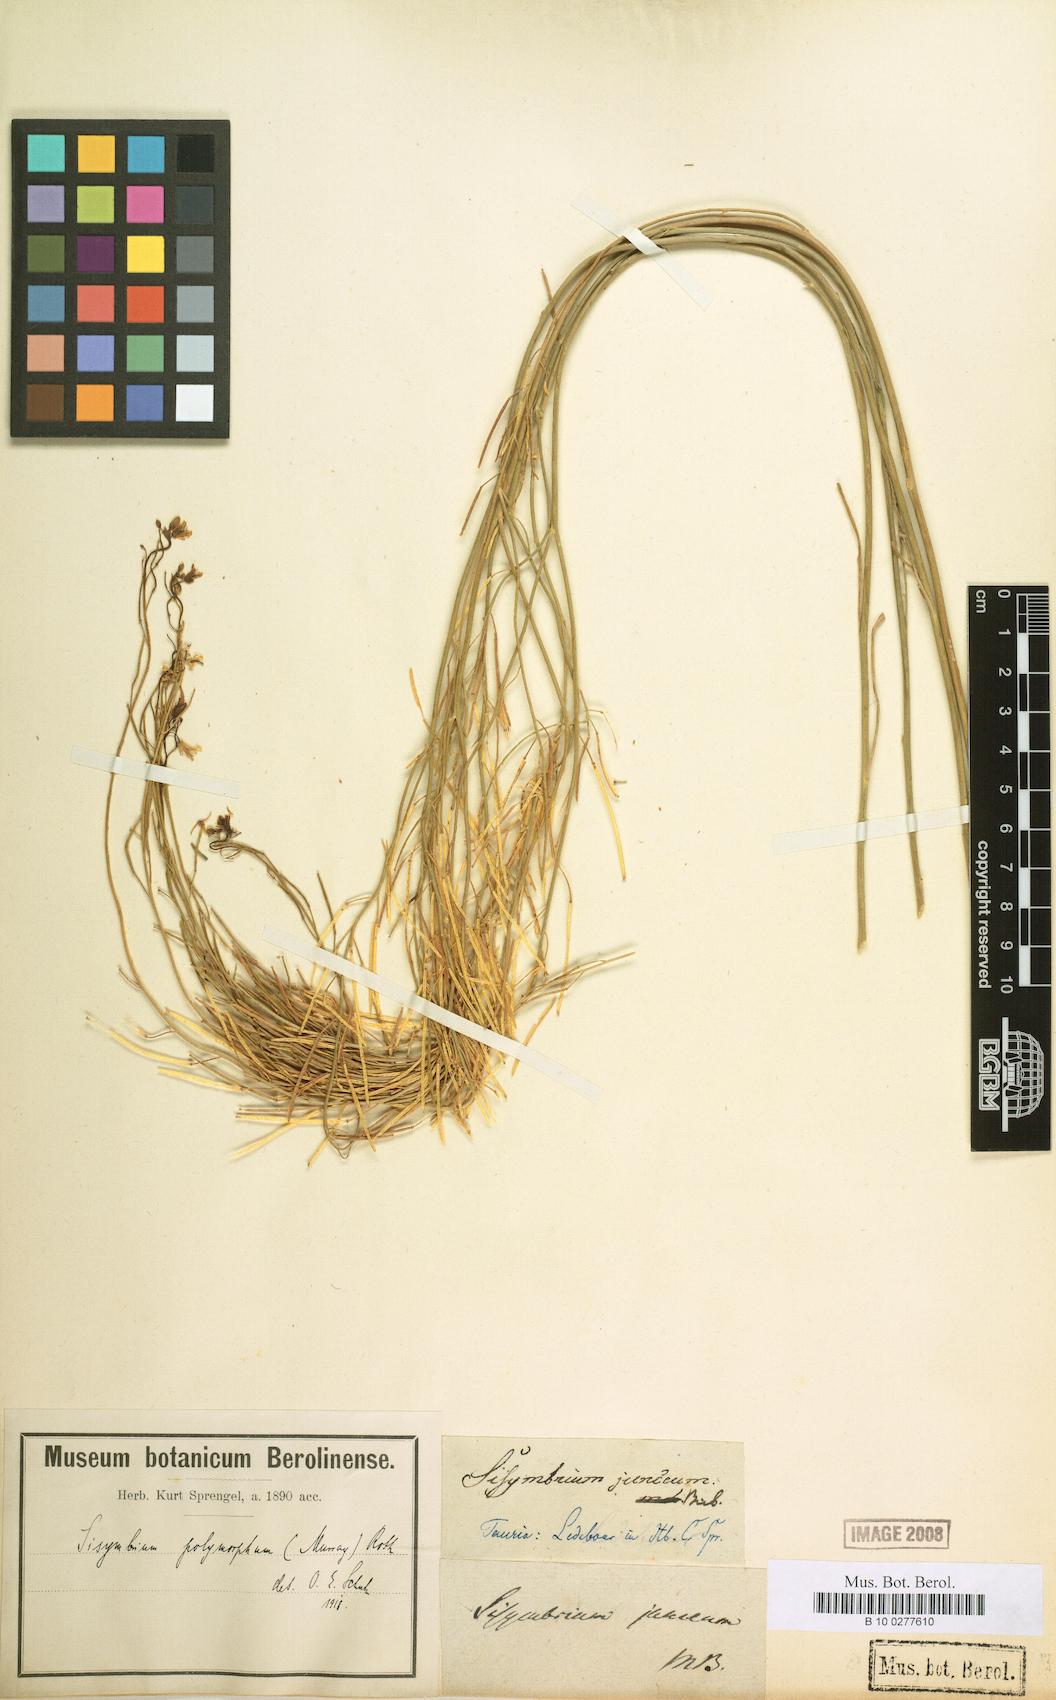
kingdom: Plantae
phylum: Tracheophyta
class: Magnoliopsida
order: Brassicales
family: Brassicaceae
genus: Sisymbrium
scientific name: Sisymbrium polymorphum
